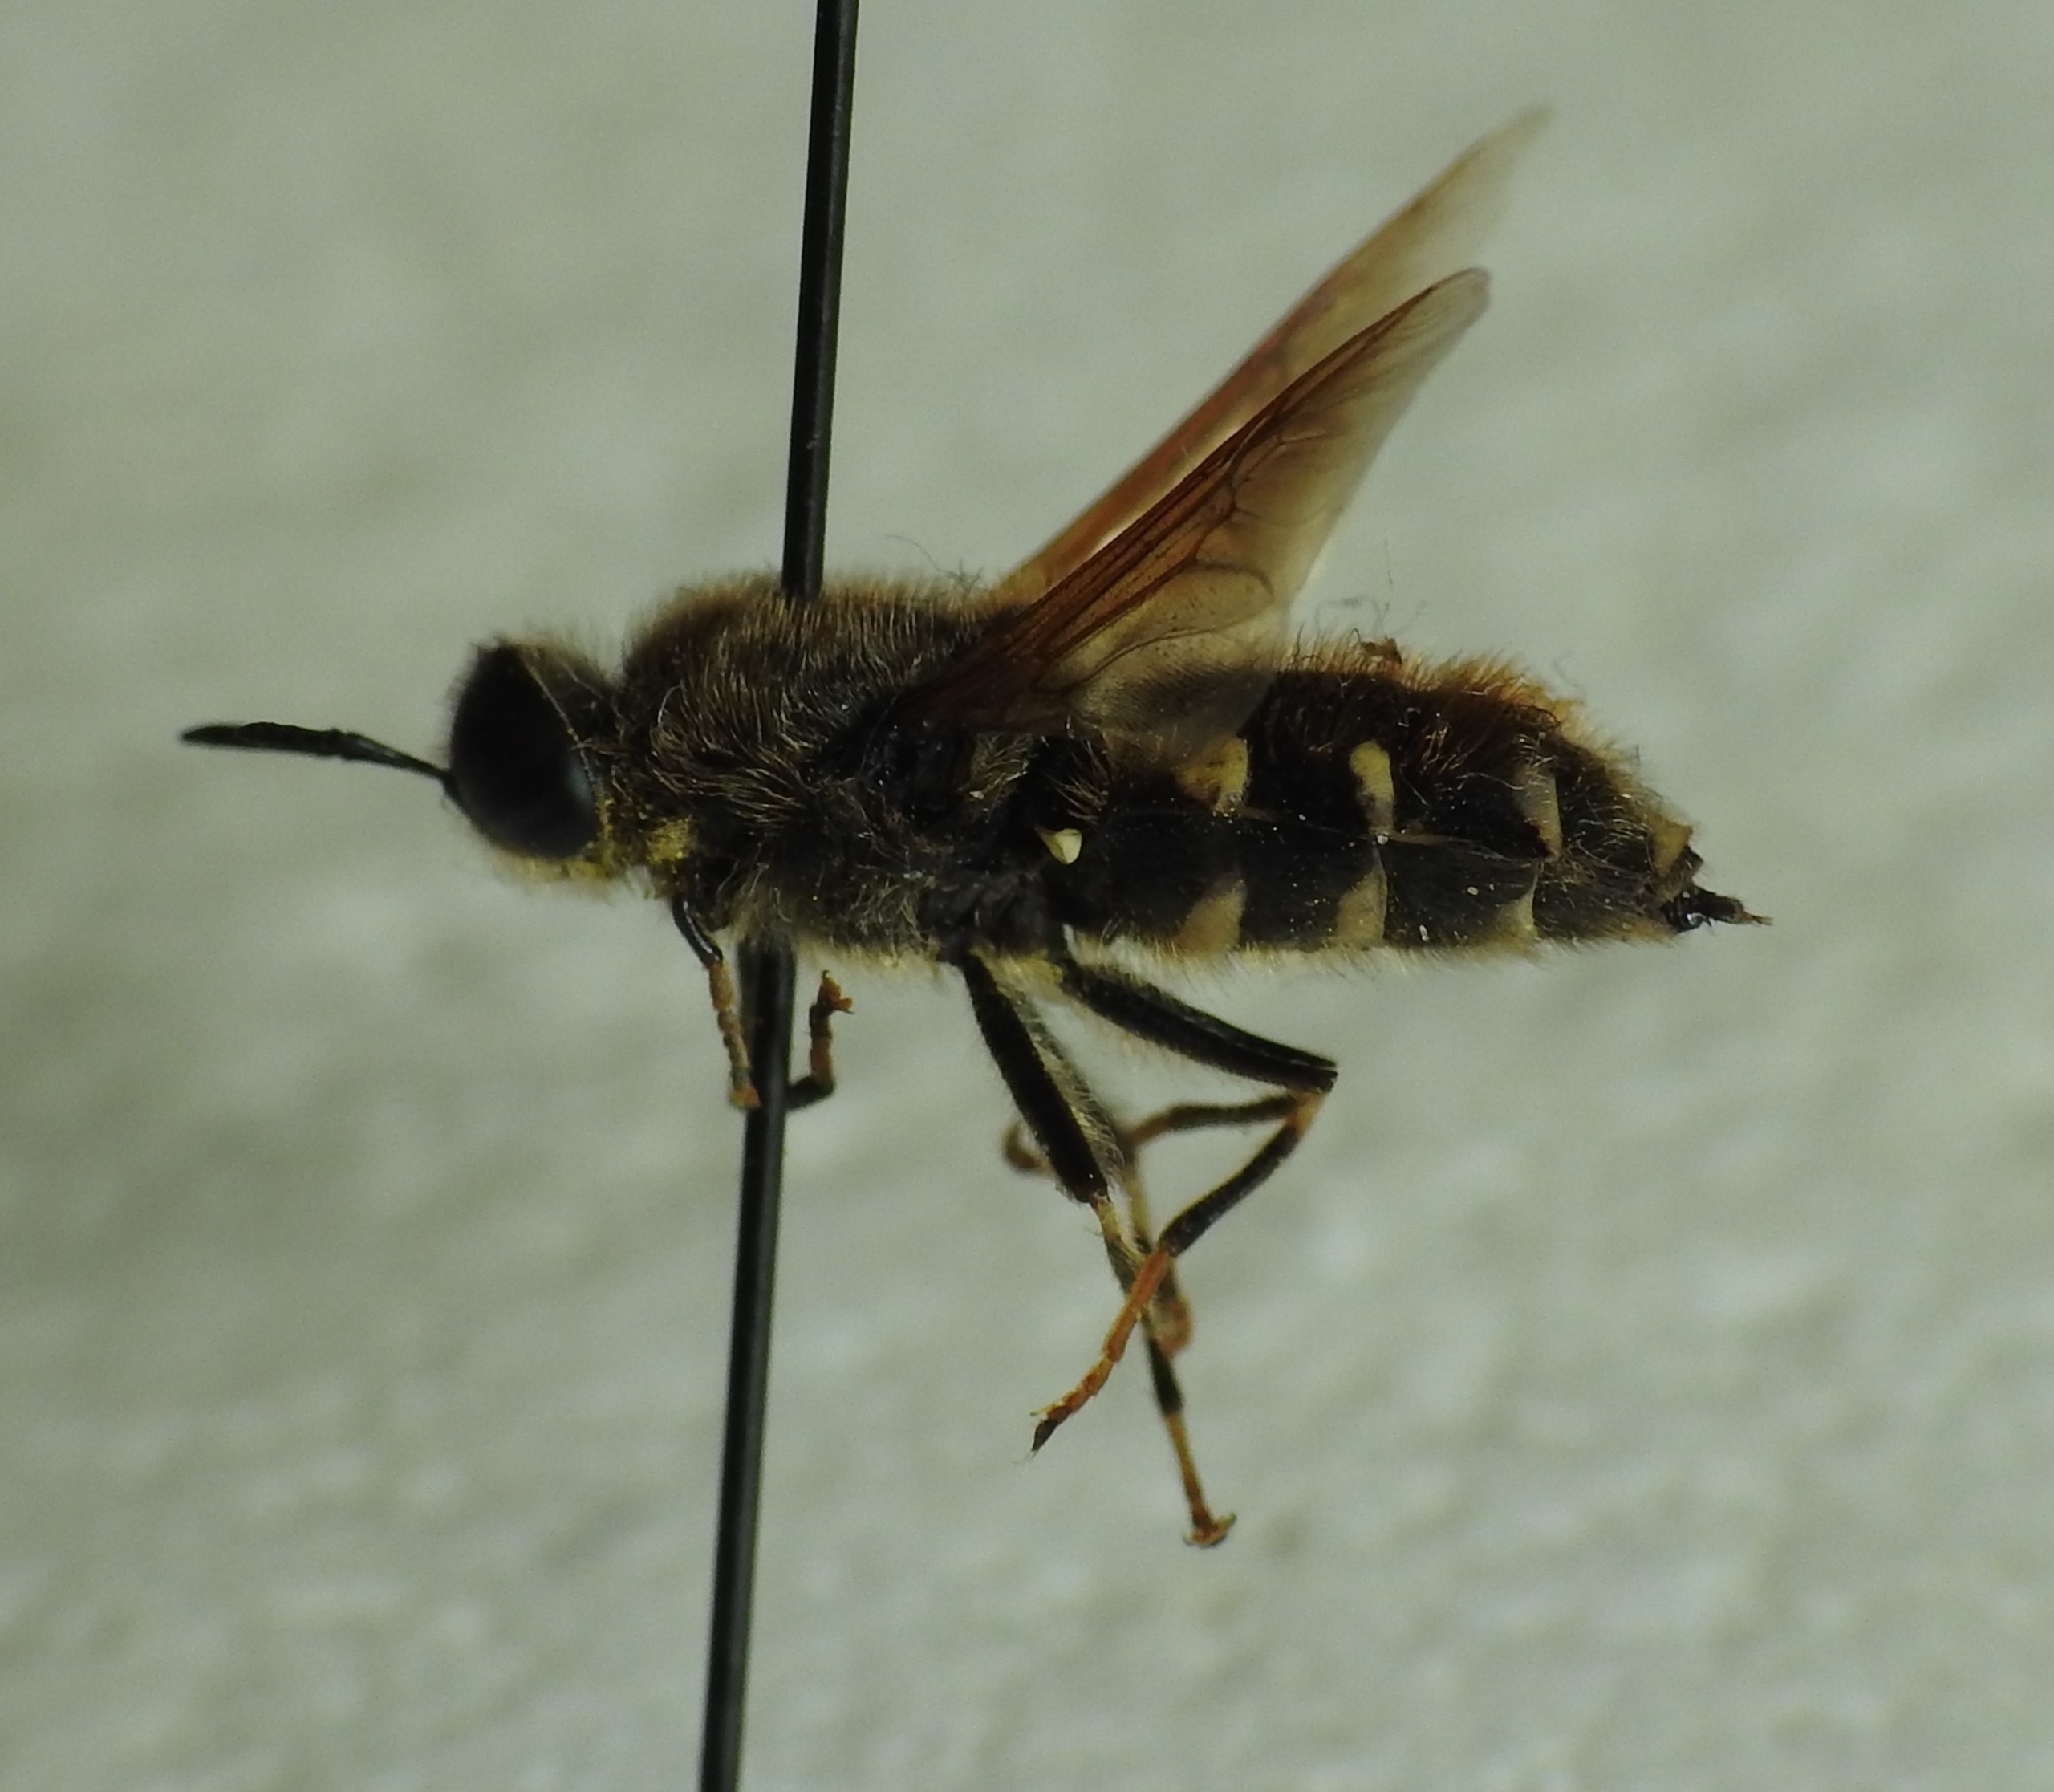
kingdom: Animalia
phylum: Arthropoda
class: Insecta
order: Diptera
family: Stratiomyidae
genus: Stratiomys
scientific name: Stratiomys singularior
